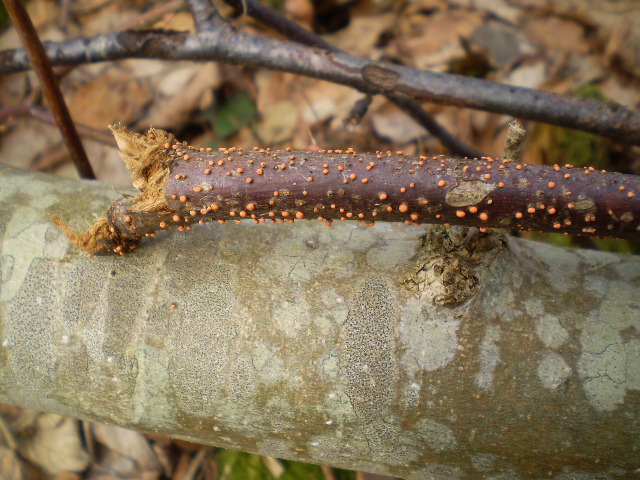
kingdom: Fungi
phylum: Ascomycota
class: Sordariomycetes
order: Hypocreales
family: Nectriaceae
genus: Nectria
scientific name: Nectria cinnabarina
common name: almindelig cinnobersvamp
